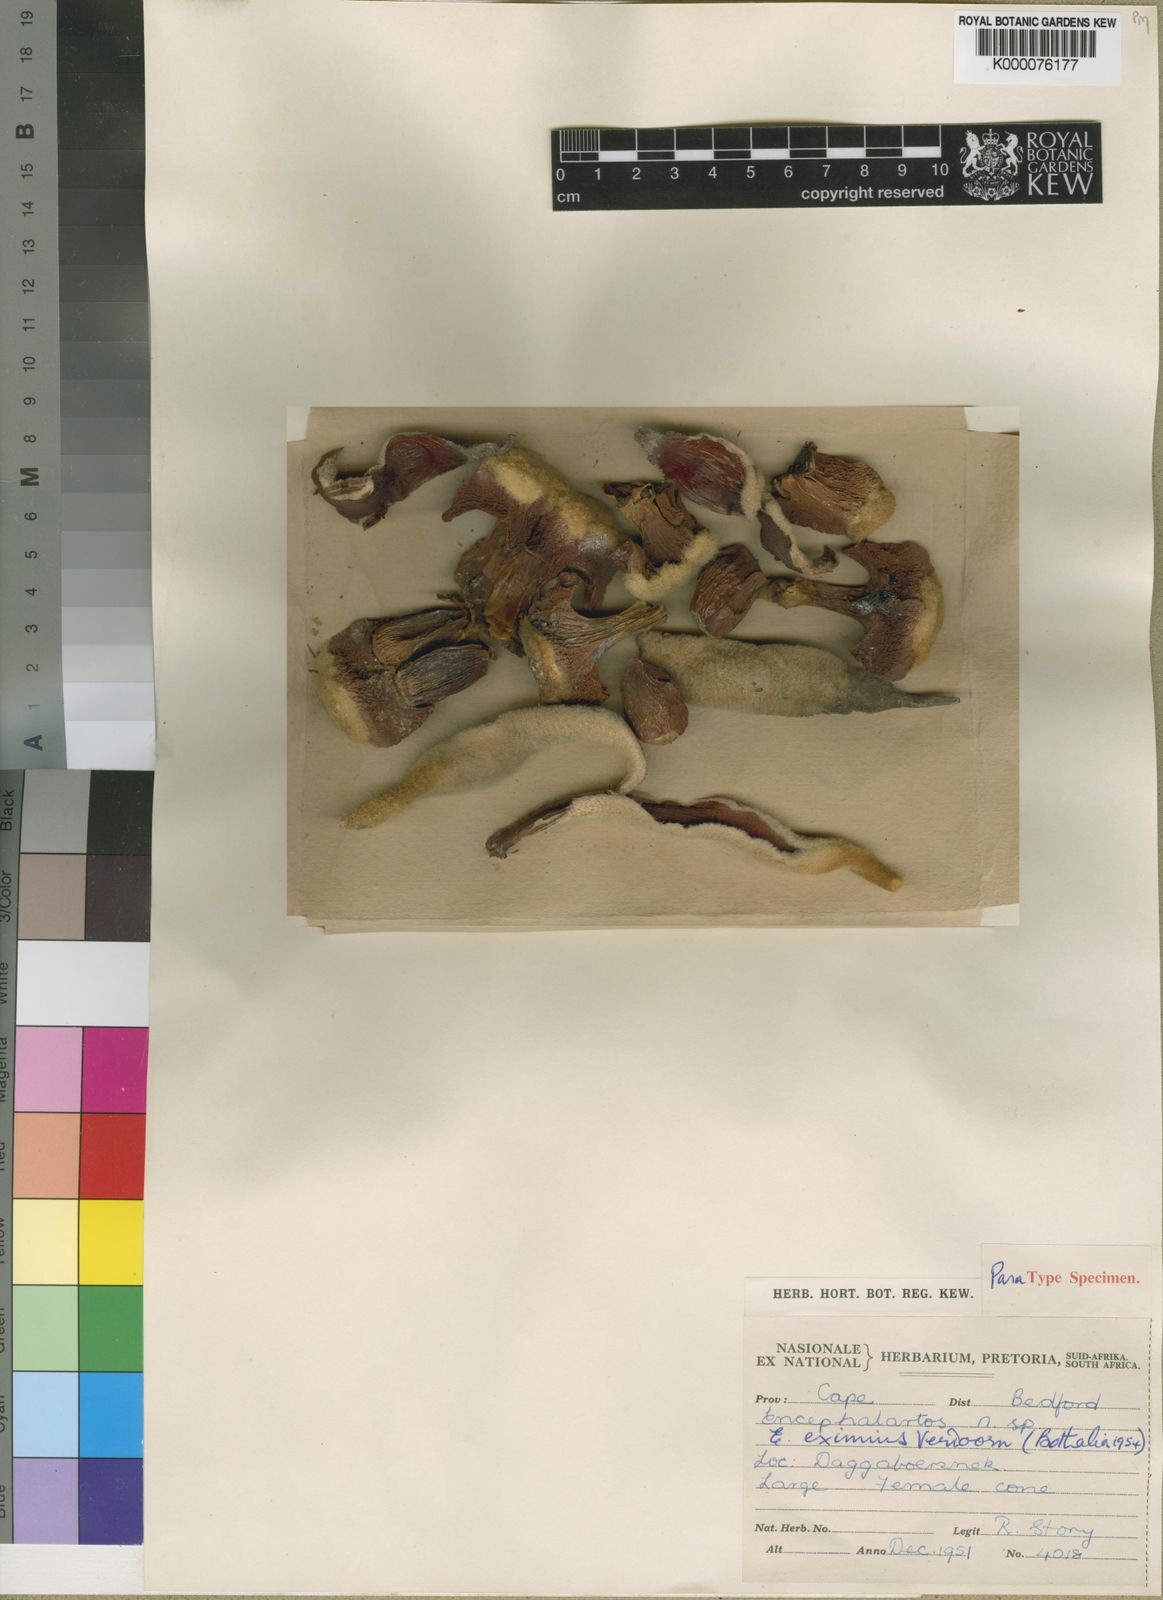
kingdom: Plantae
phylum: Tracheophyta
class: Cycadopsida
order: Cycadales
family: Zamiaceae
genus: Encephalartos
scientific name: Encephalartos cycadifolius
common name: Winterberg cycad
